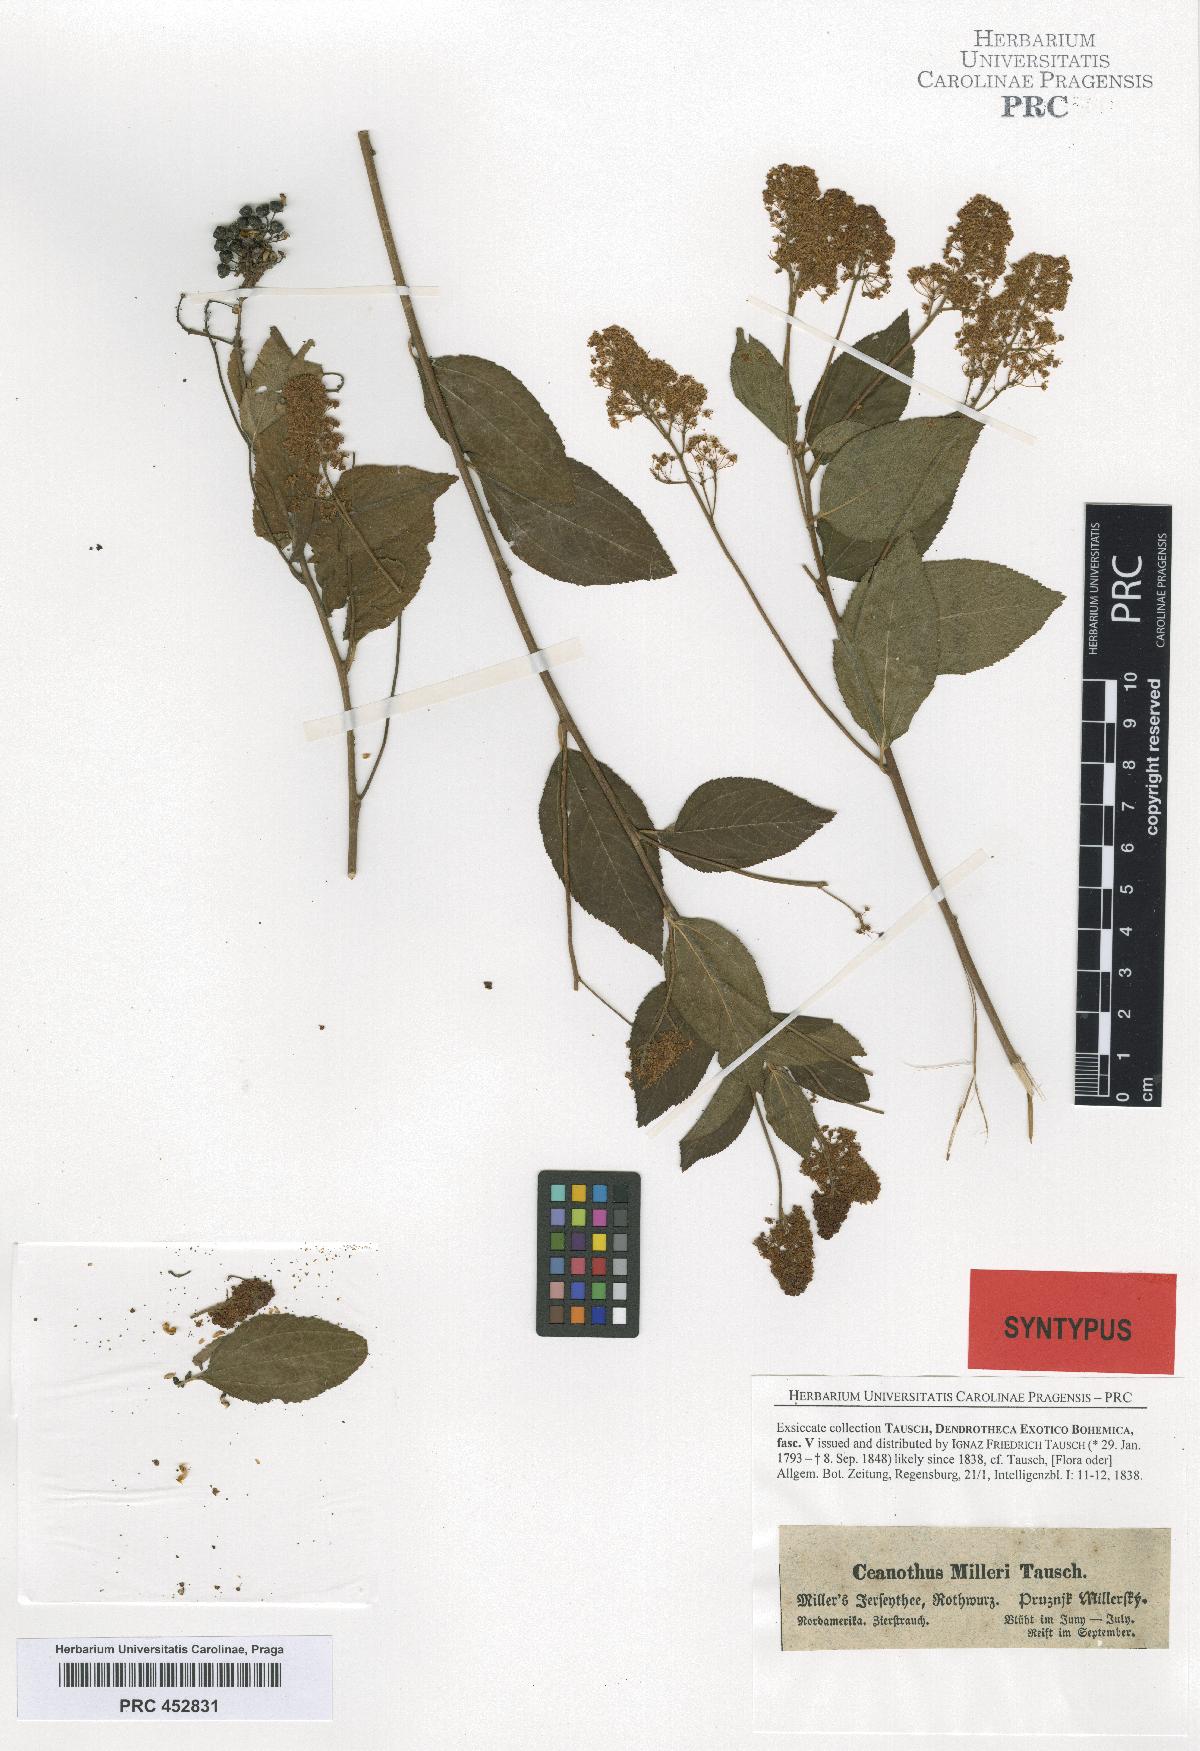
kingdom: Plantae
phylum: Tracheophyta
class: Magnoliopsida
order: Rosales
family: Rhamnaceae
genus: Ceanothus
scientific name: Ceanothus americanus
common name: Redroot
